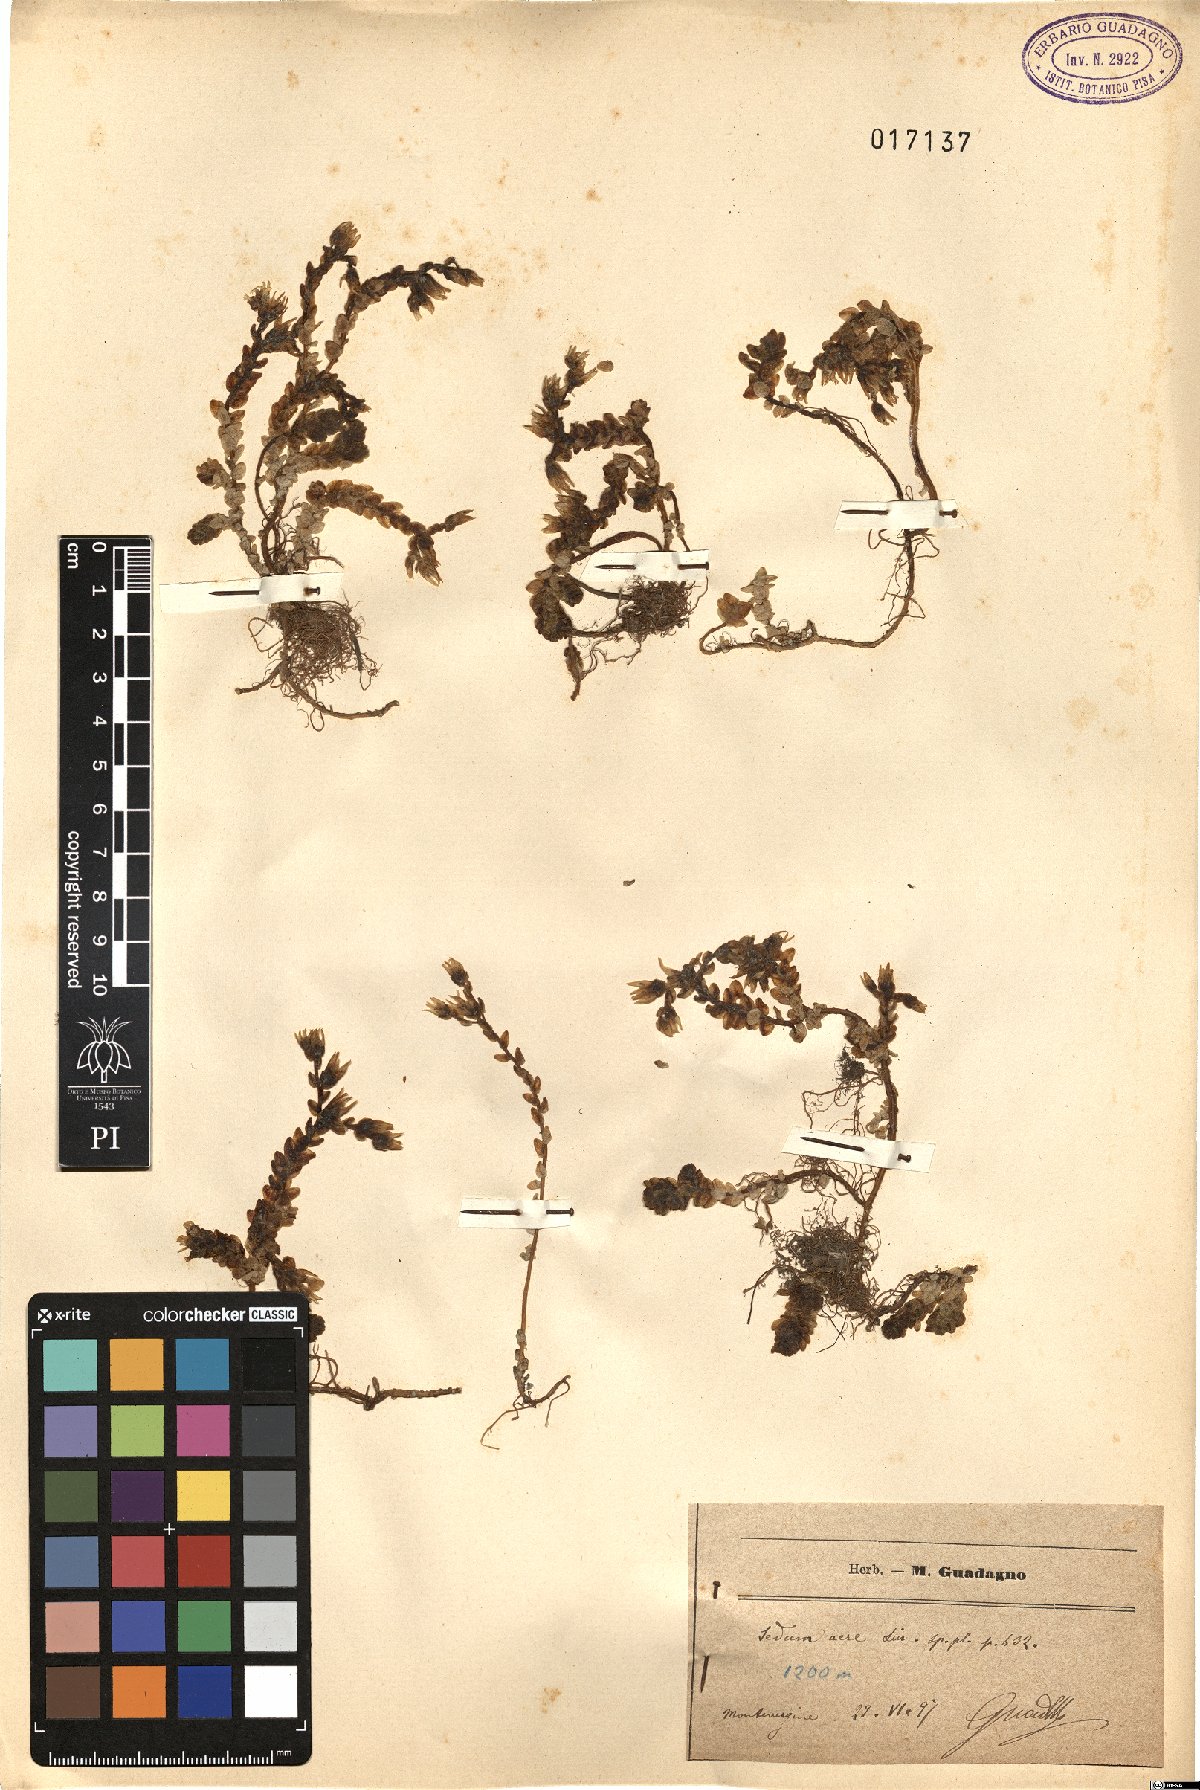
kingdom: Plantae
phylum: Tracheophyta
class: Magnoliopsida
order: Saxifragales
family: Crassulaceae
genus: Sedum
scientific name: Sedum acre
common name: Biting stonecrop
